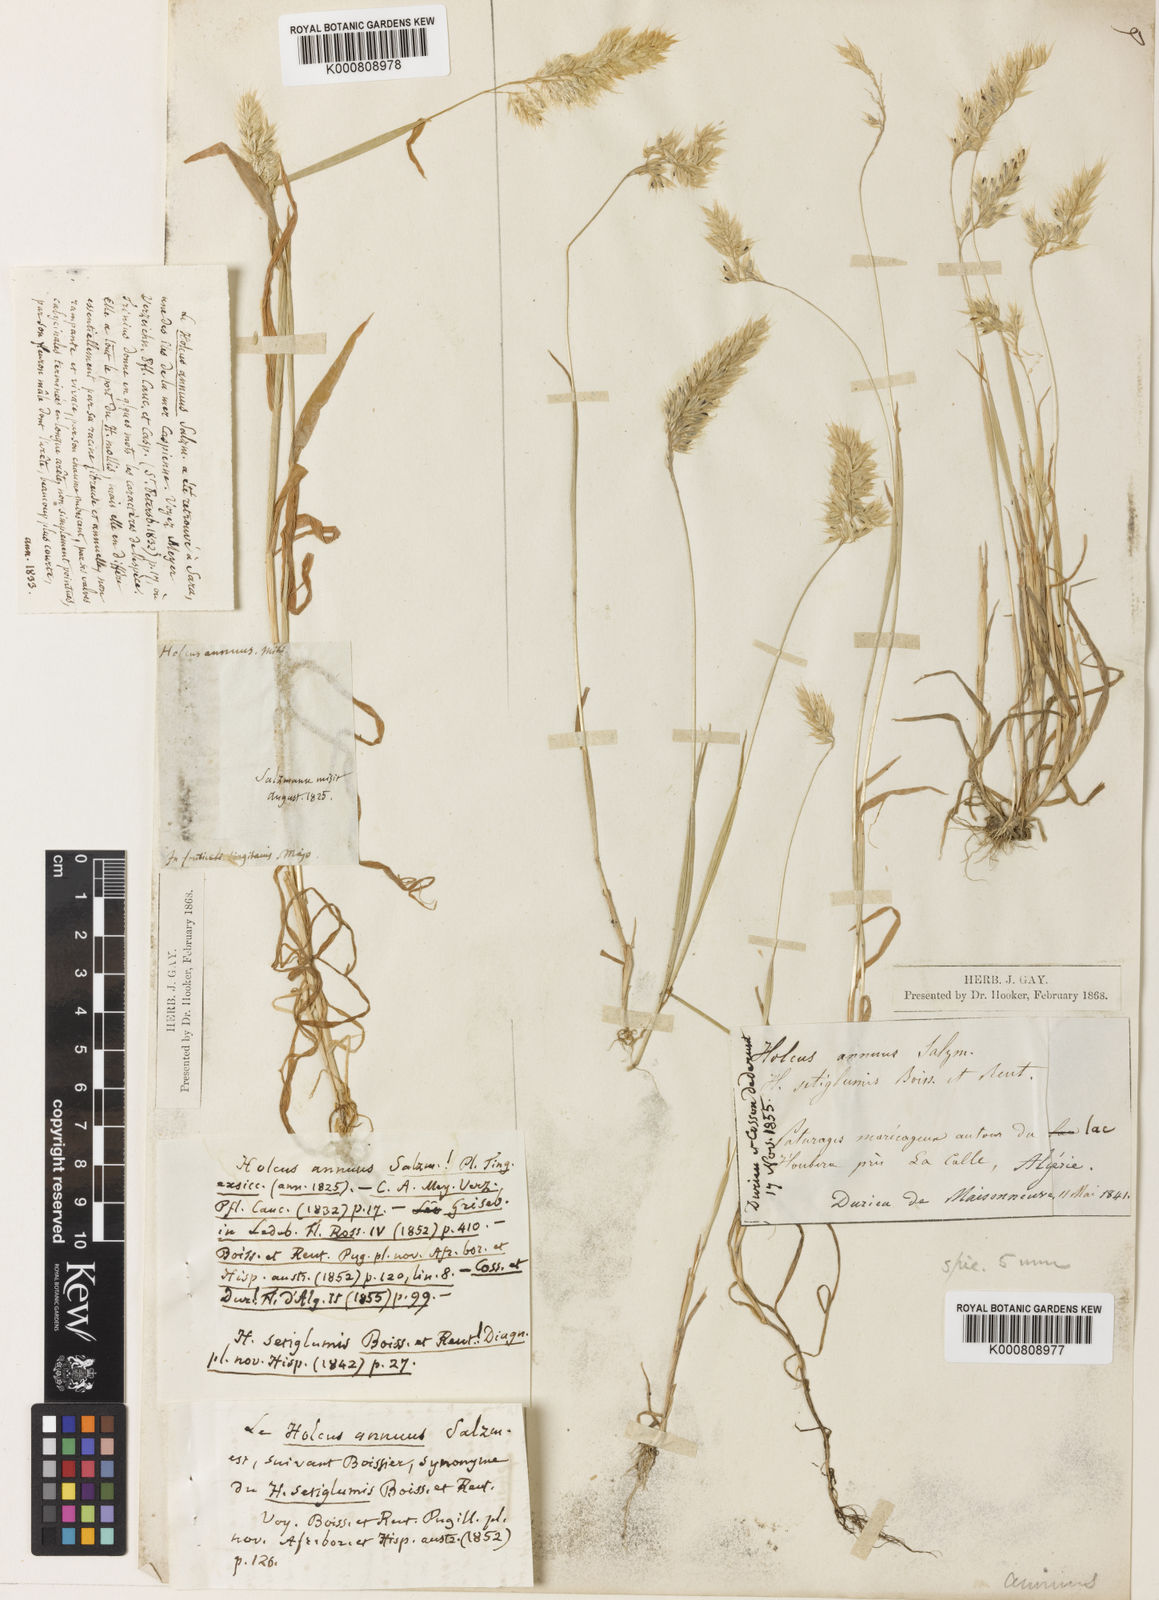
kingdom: Plantae
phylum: Tracheophyta
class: Liliopsida
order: Poales
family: Poaceae
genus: Holcus
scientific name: Holcus annuus
